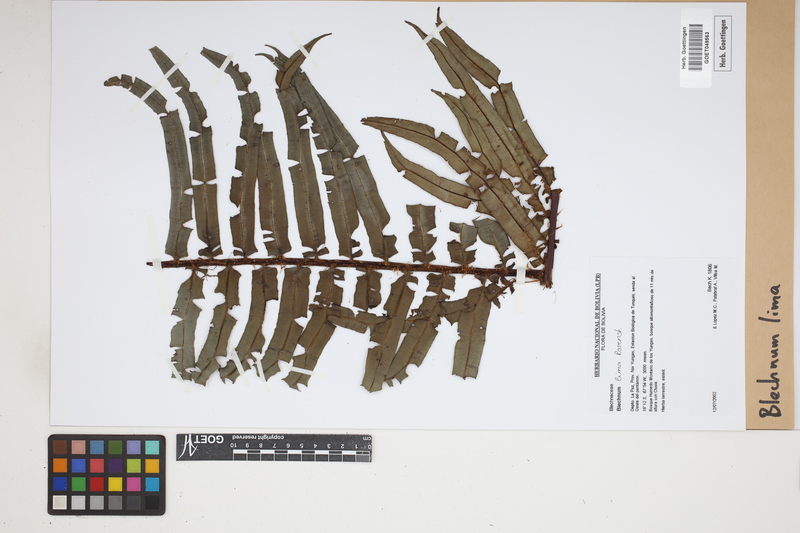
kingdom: Plantae
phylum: Tracheophyta
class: Polypodiopsida
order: Polypodiales
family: Blechnaceae
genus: Parablechnum
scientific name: Parablechnum lima
